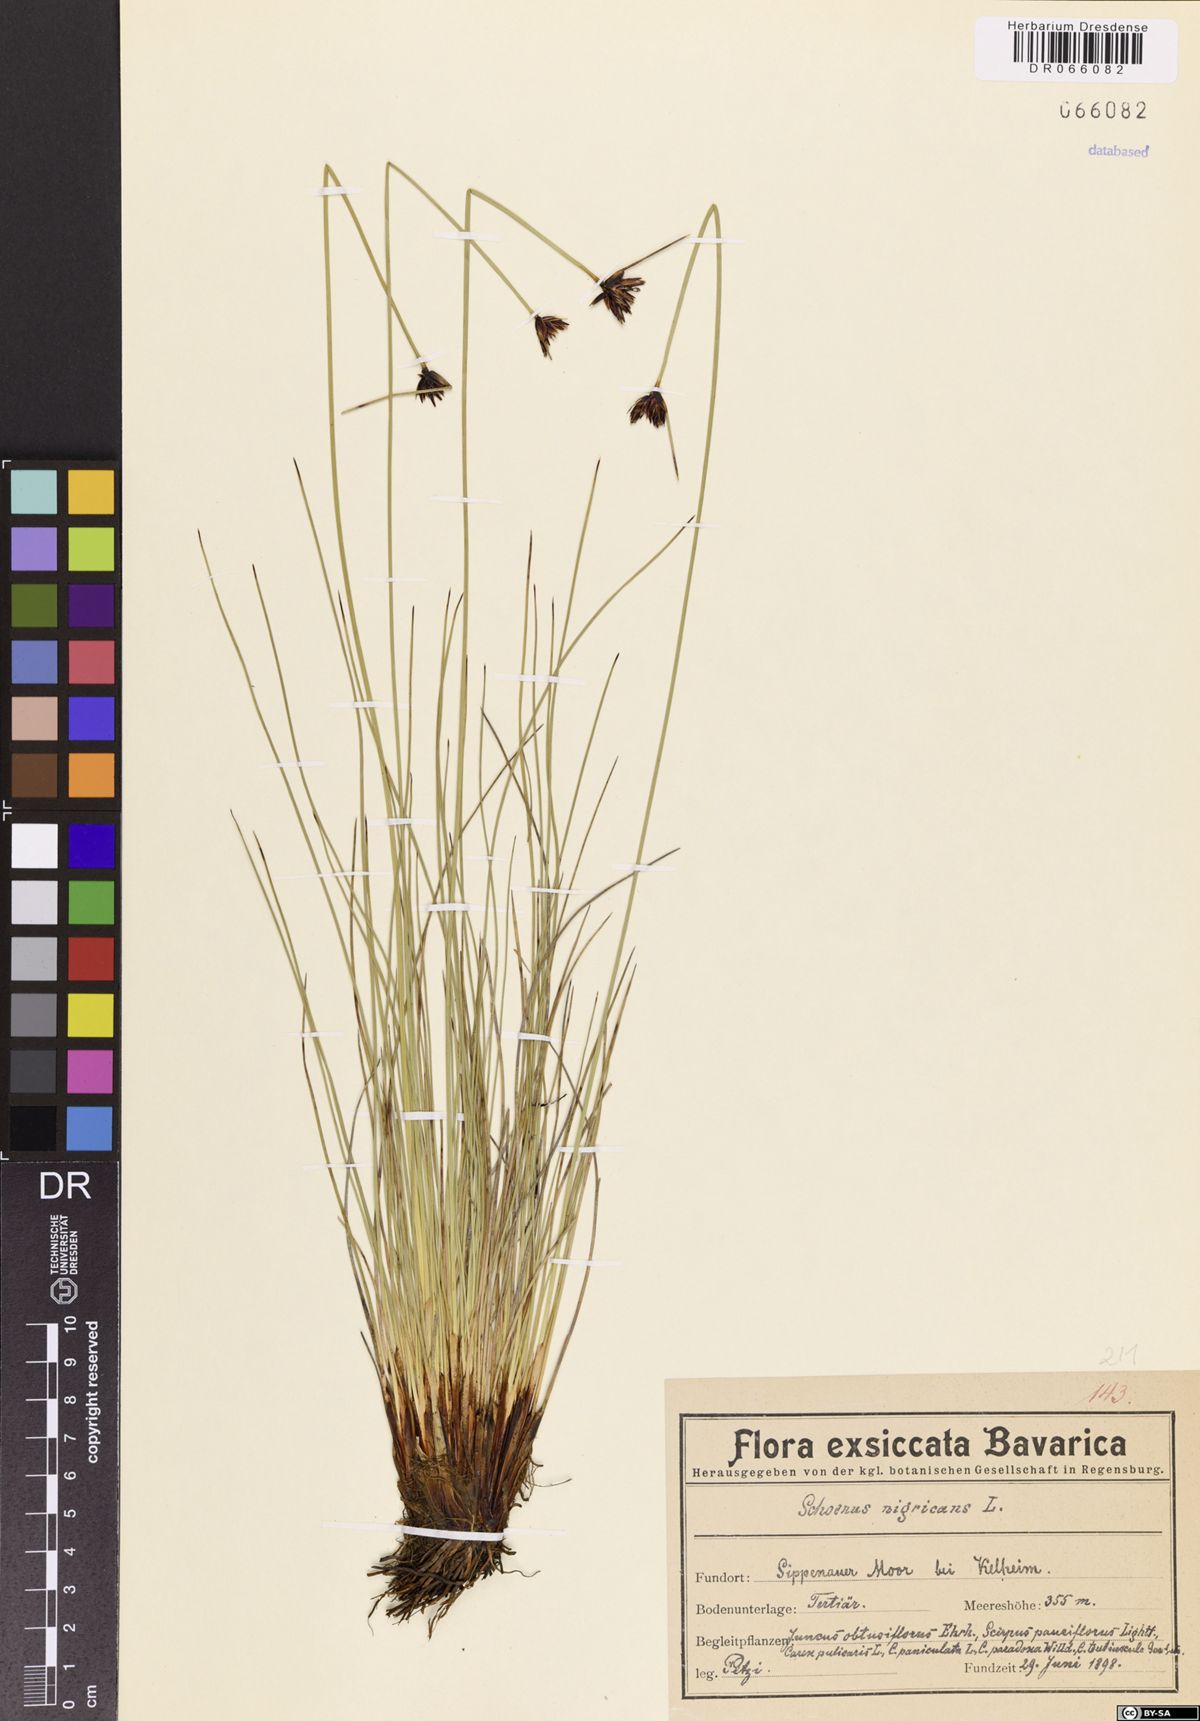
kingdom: Plantae
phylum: Tracheophyta
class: Liliopsida
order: Poales
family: Cyperaceae
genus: Schoenus
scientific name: Schoenus nigricans
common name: Black bog-rush
